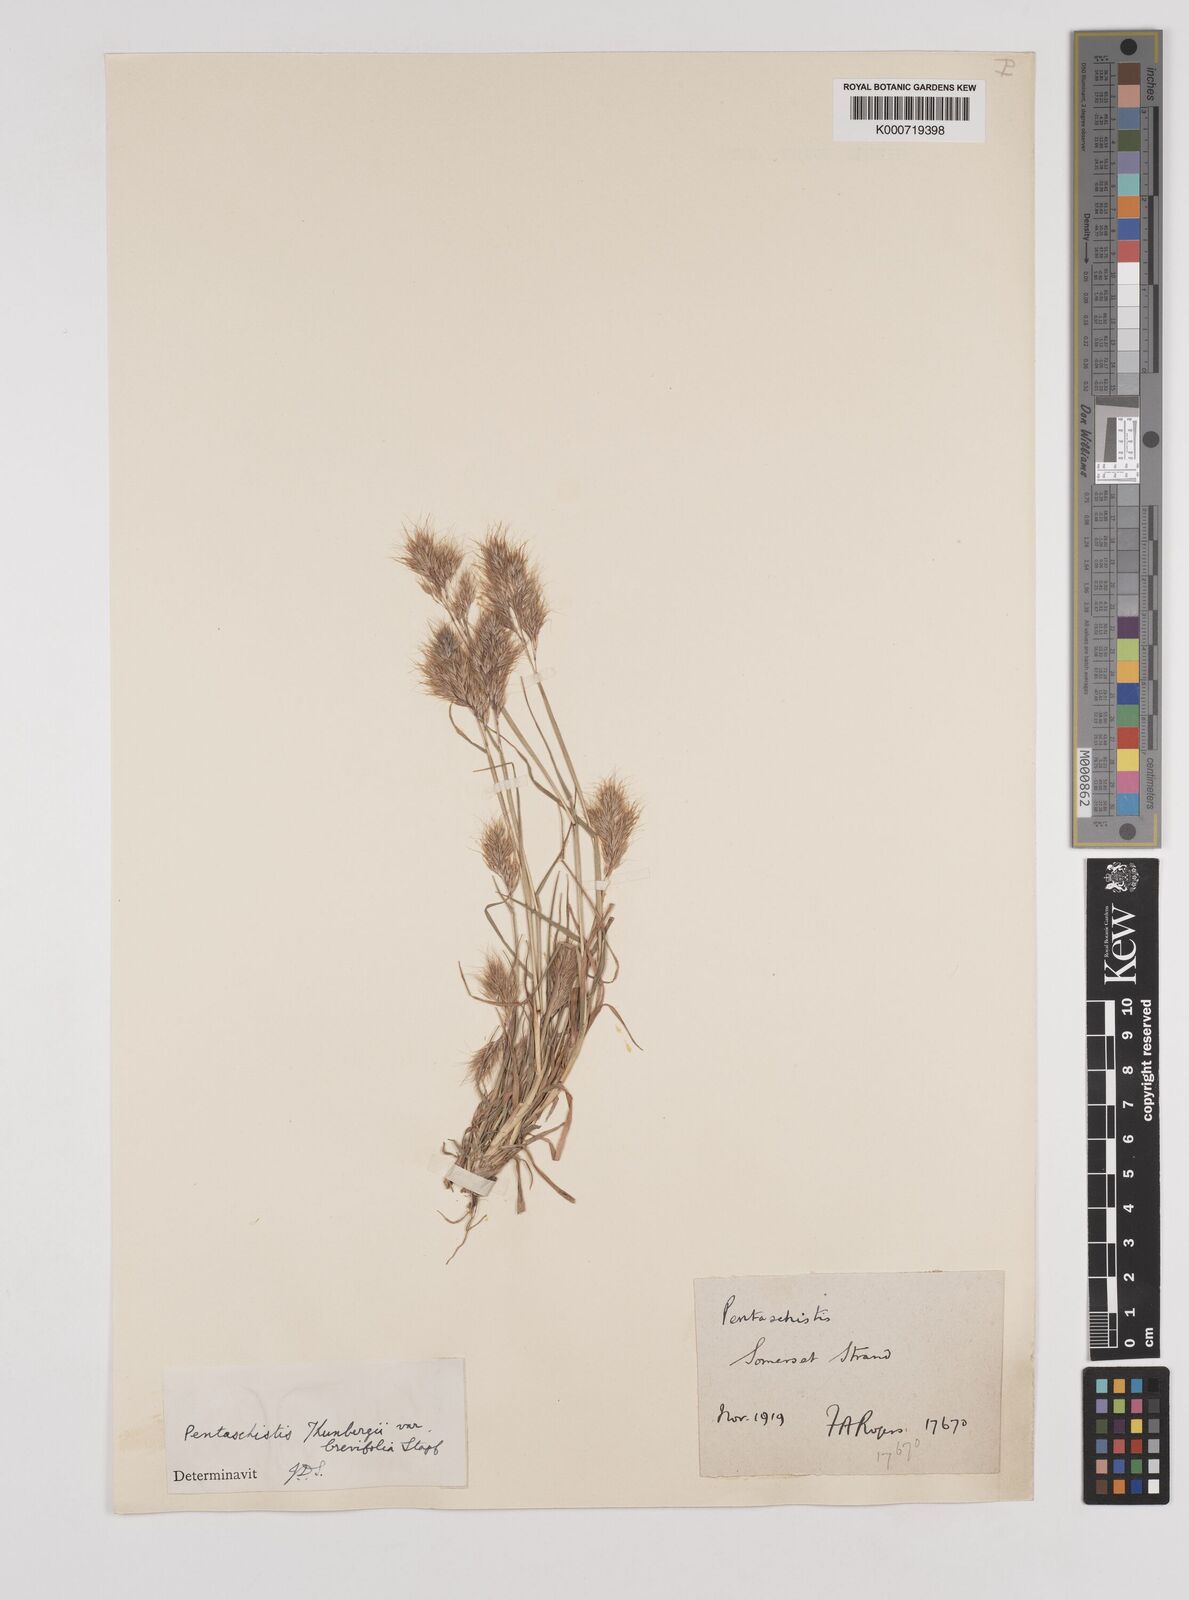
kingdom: Plantae
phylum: Tracheophyta
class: Liliopsida
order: Poales
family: Poaceae
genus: Pentameris
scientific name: Pentameris triseta
